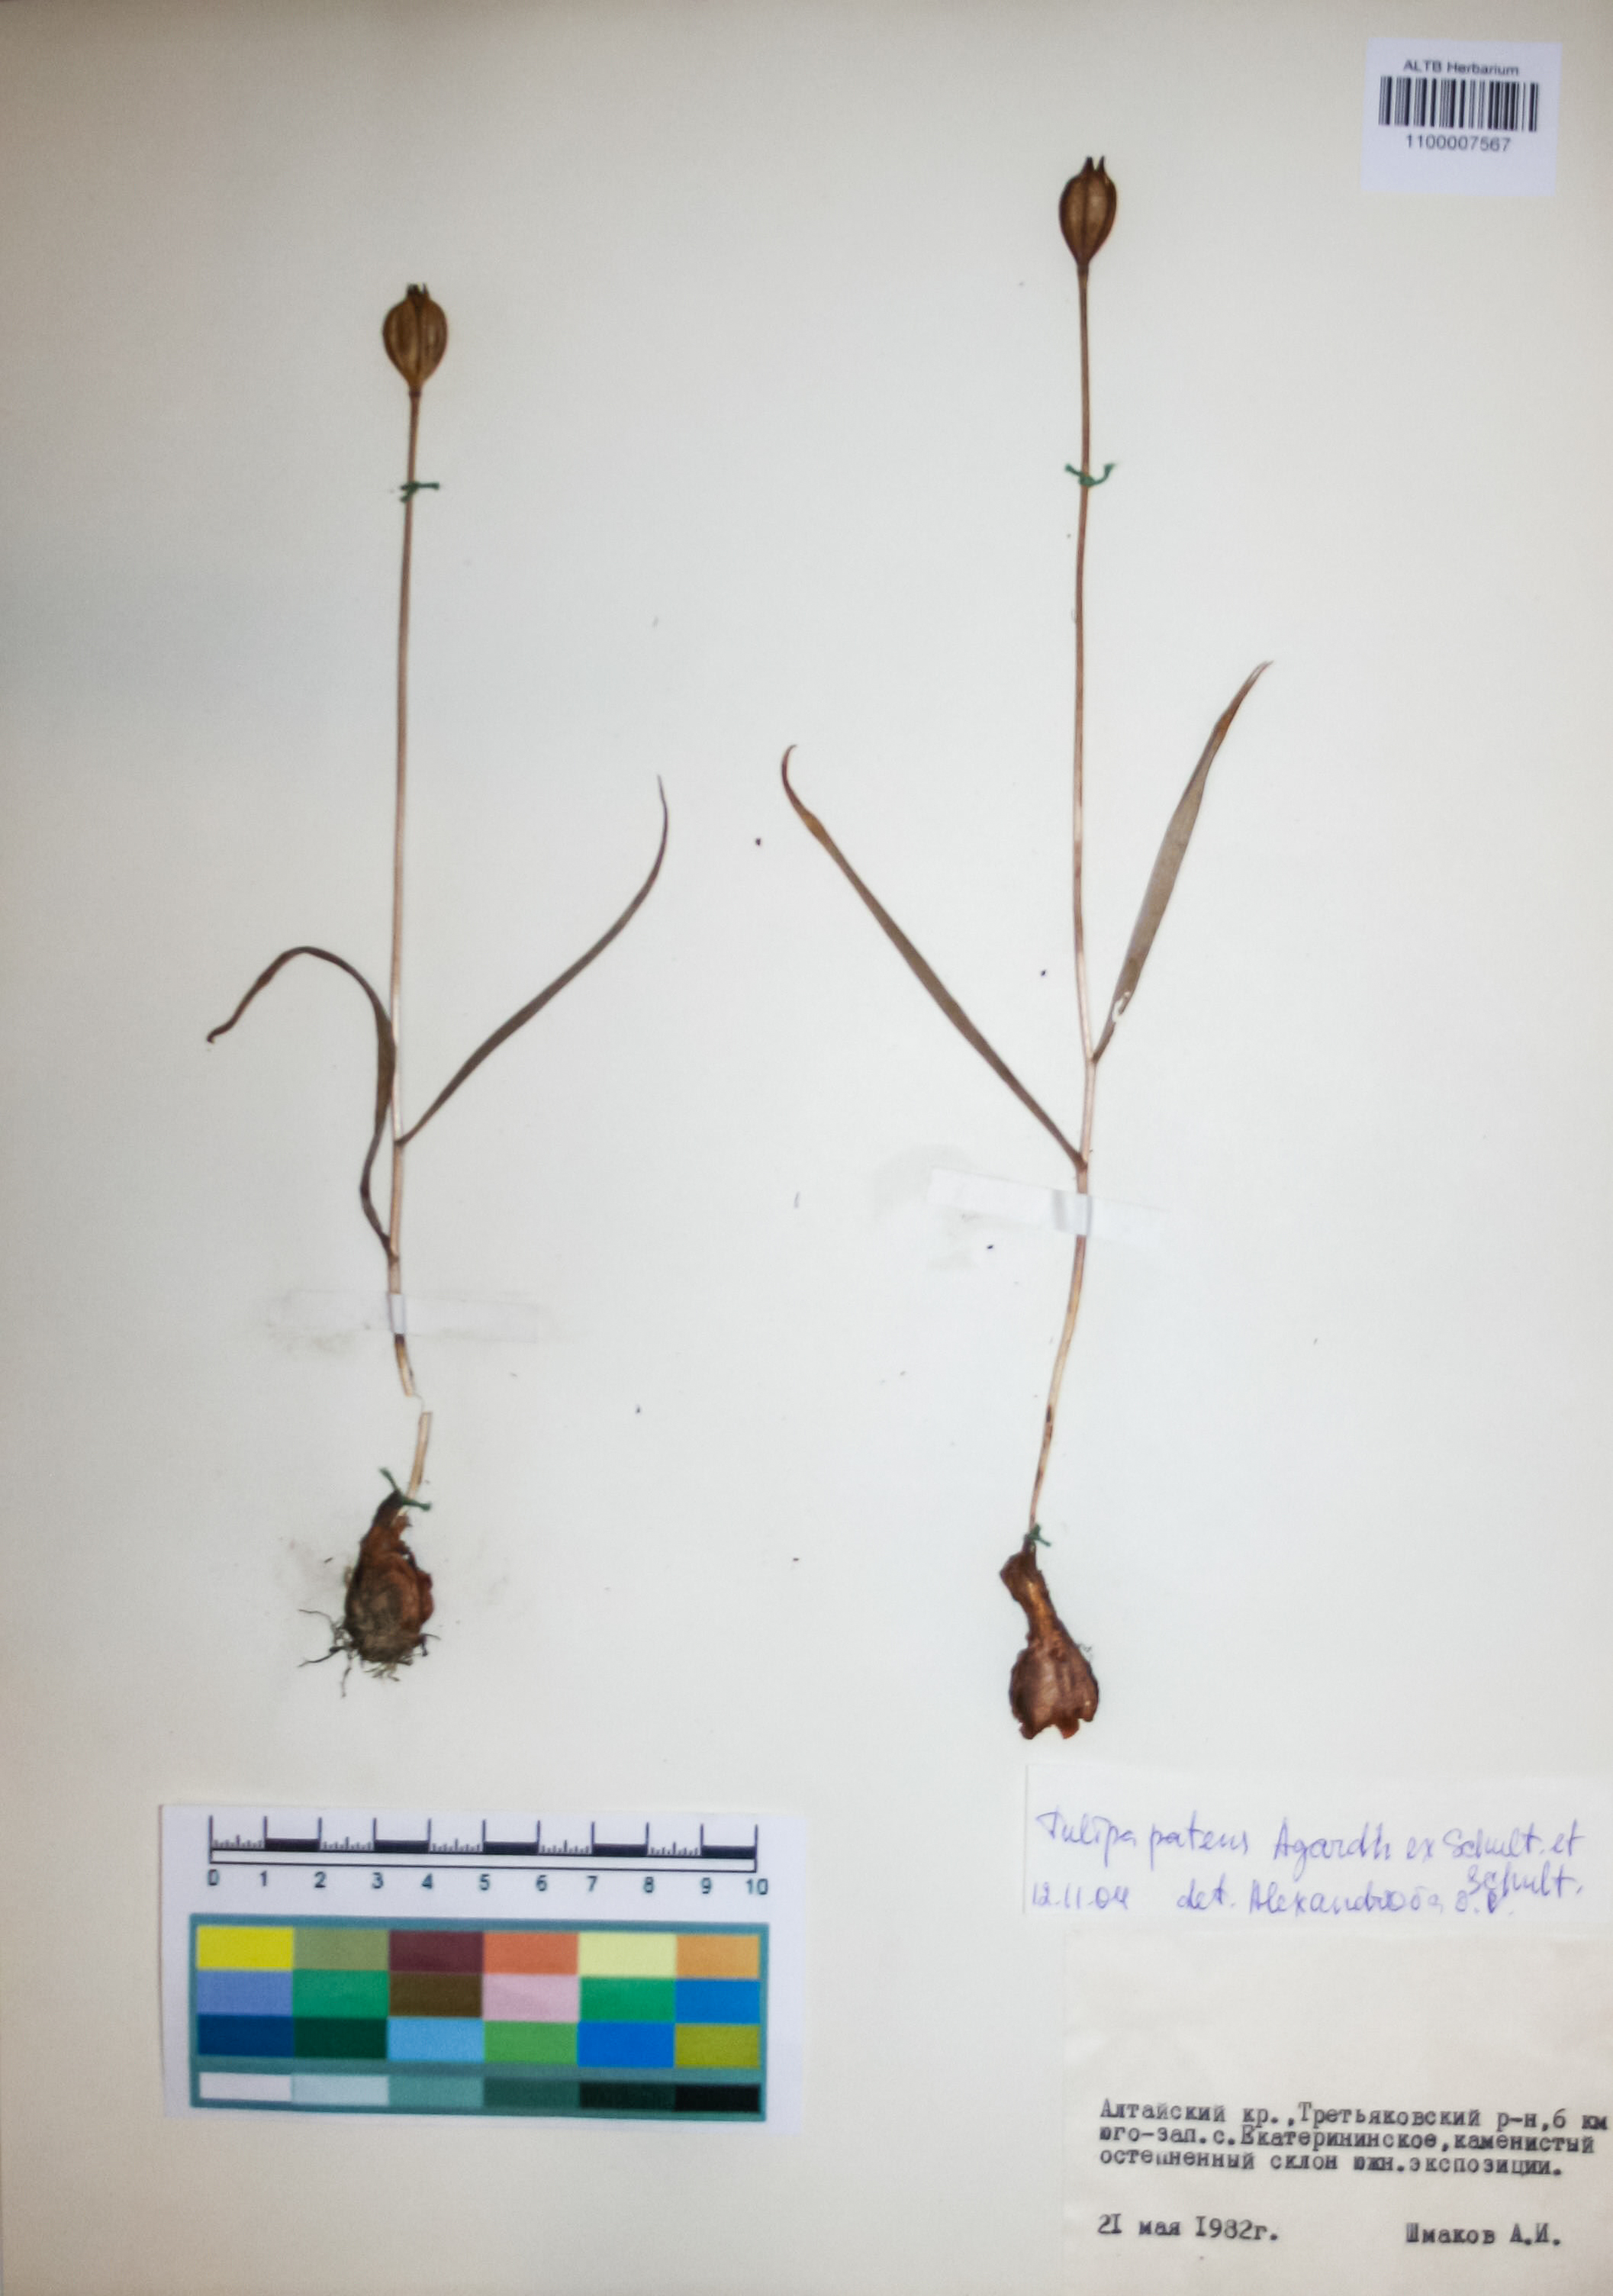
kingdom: Plantae
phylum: Tracheophyta
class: Liliopsida
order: Liliales
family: Liliaceae
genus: Tulipa
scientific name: Tulipa patens
